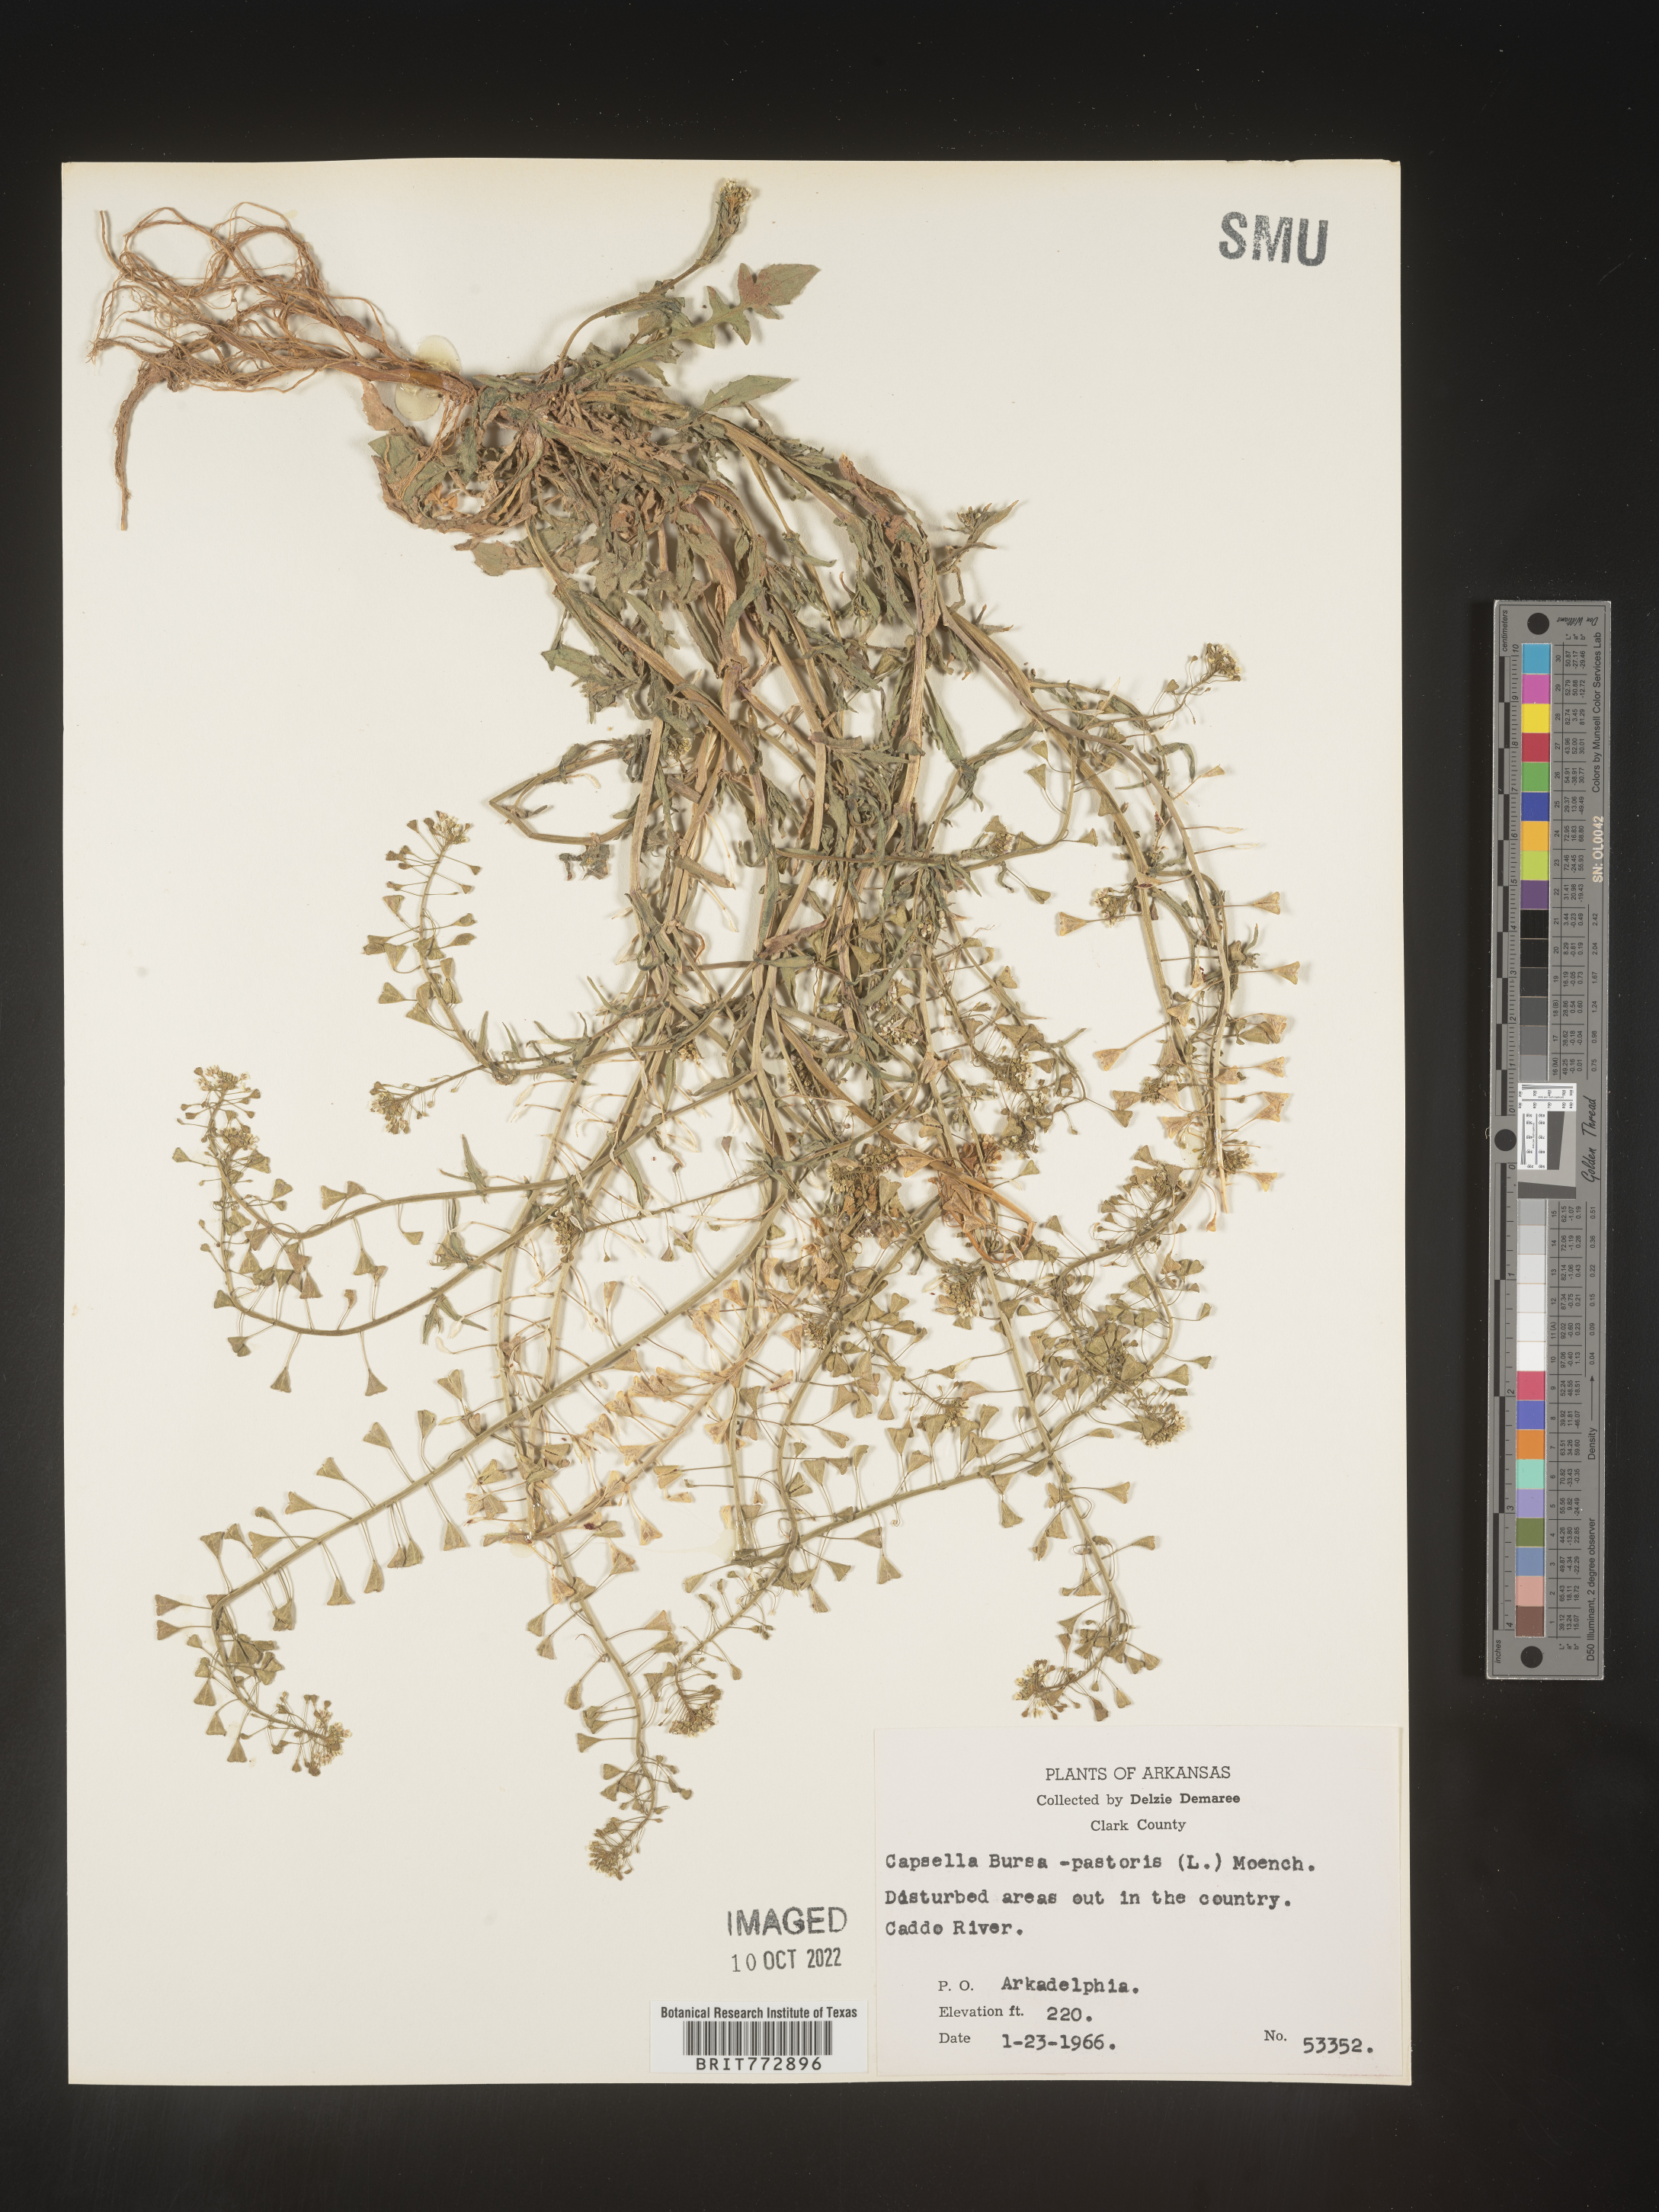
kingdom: Plantae
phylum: Tracheophyta
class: Magnoliopsida
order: Brassicales
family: Brassicaceae
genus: Capsella
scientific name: Capsella bursa-pastoris
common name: Shepherd's purse
